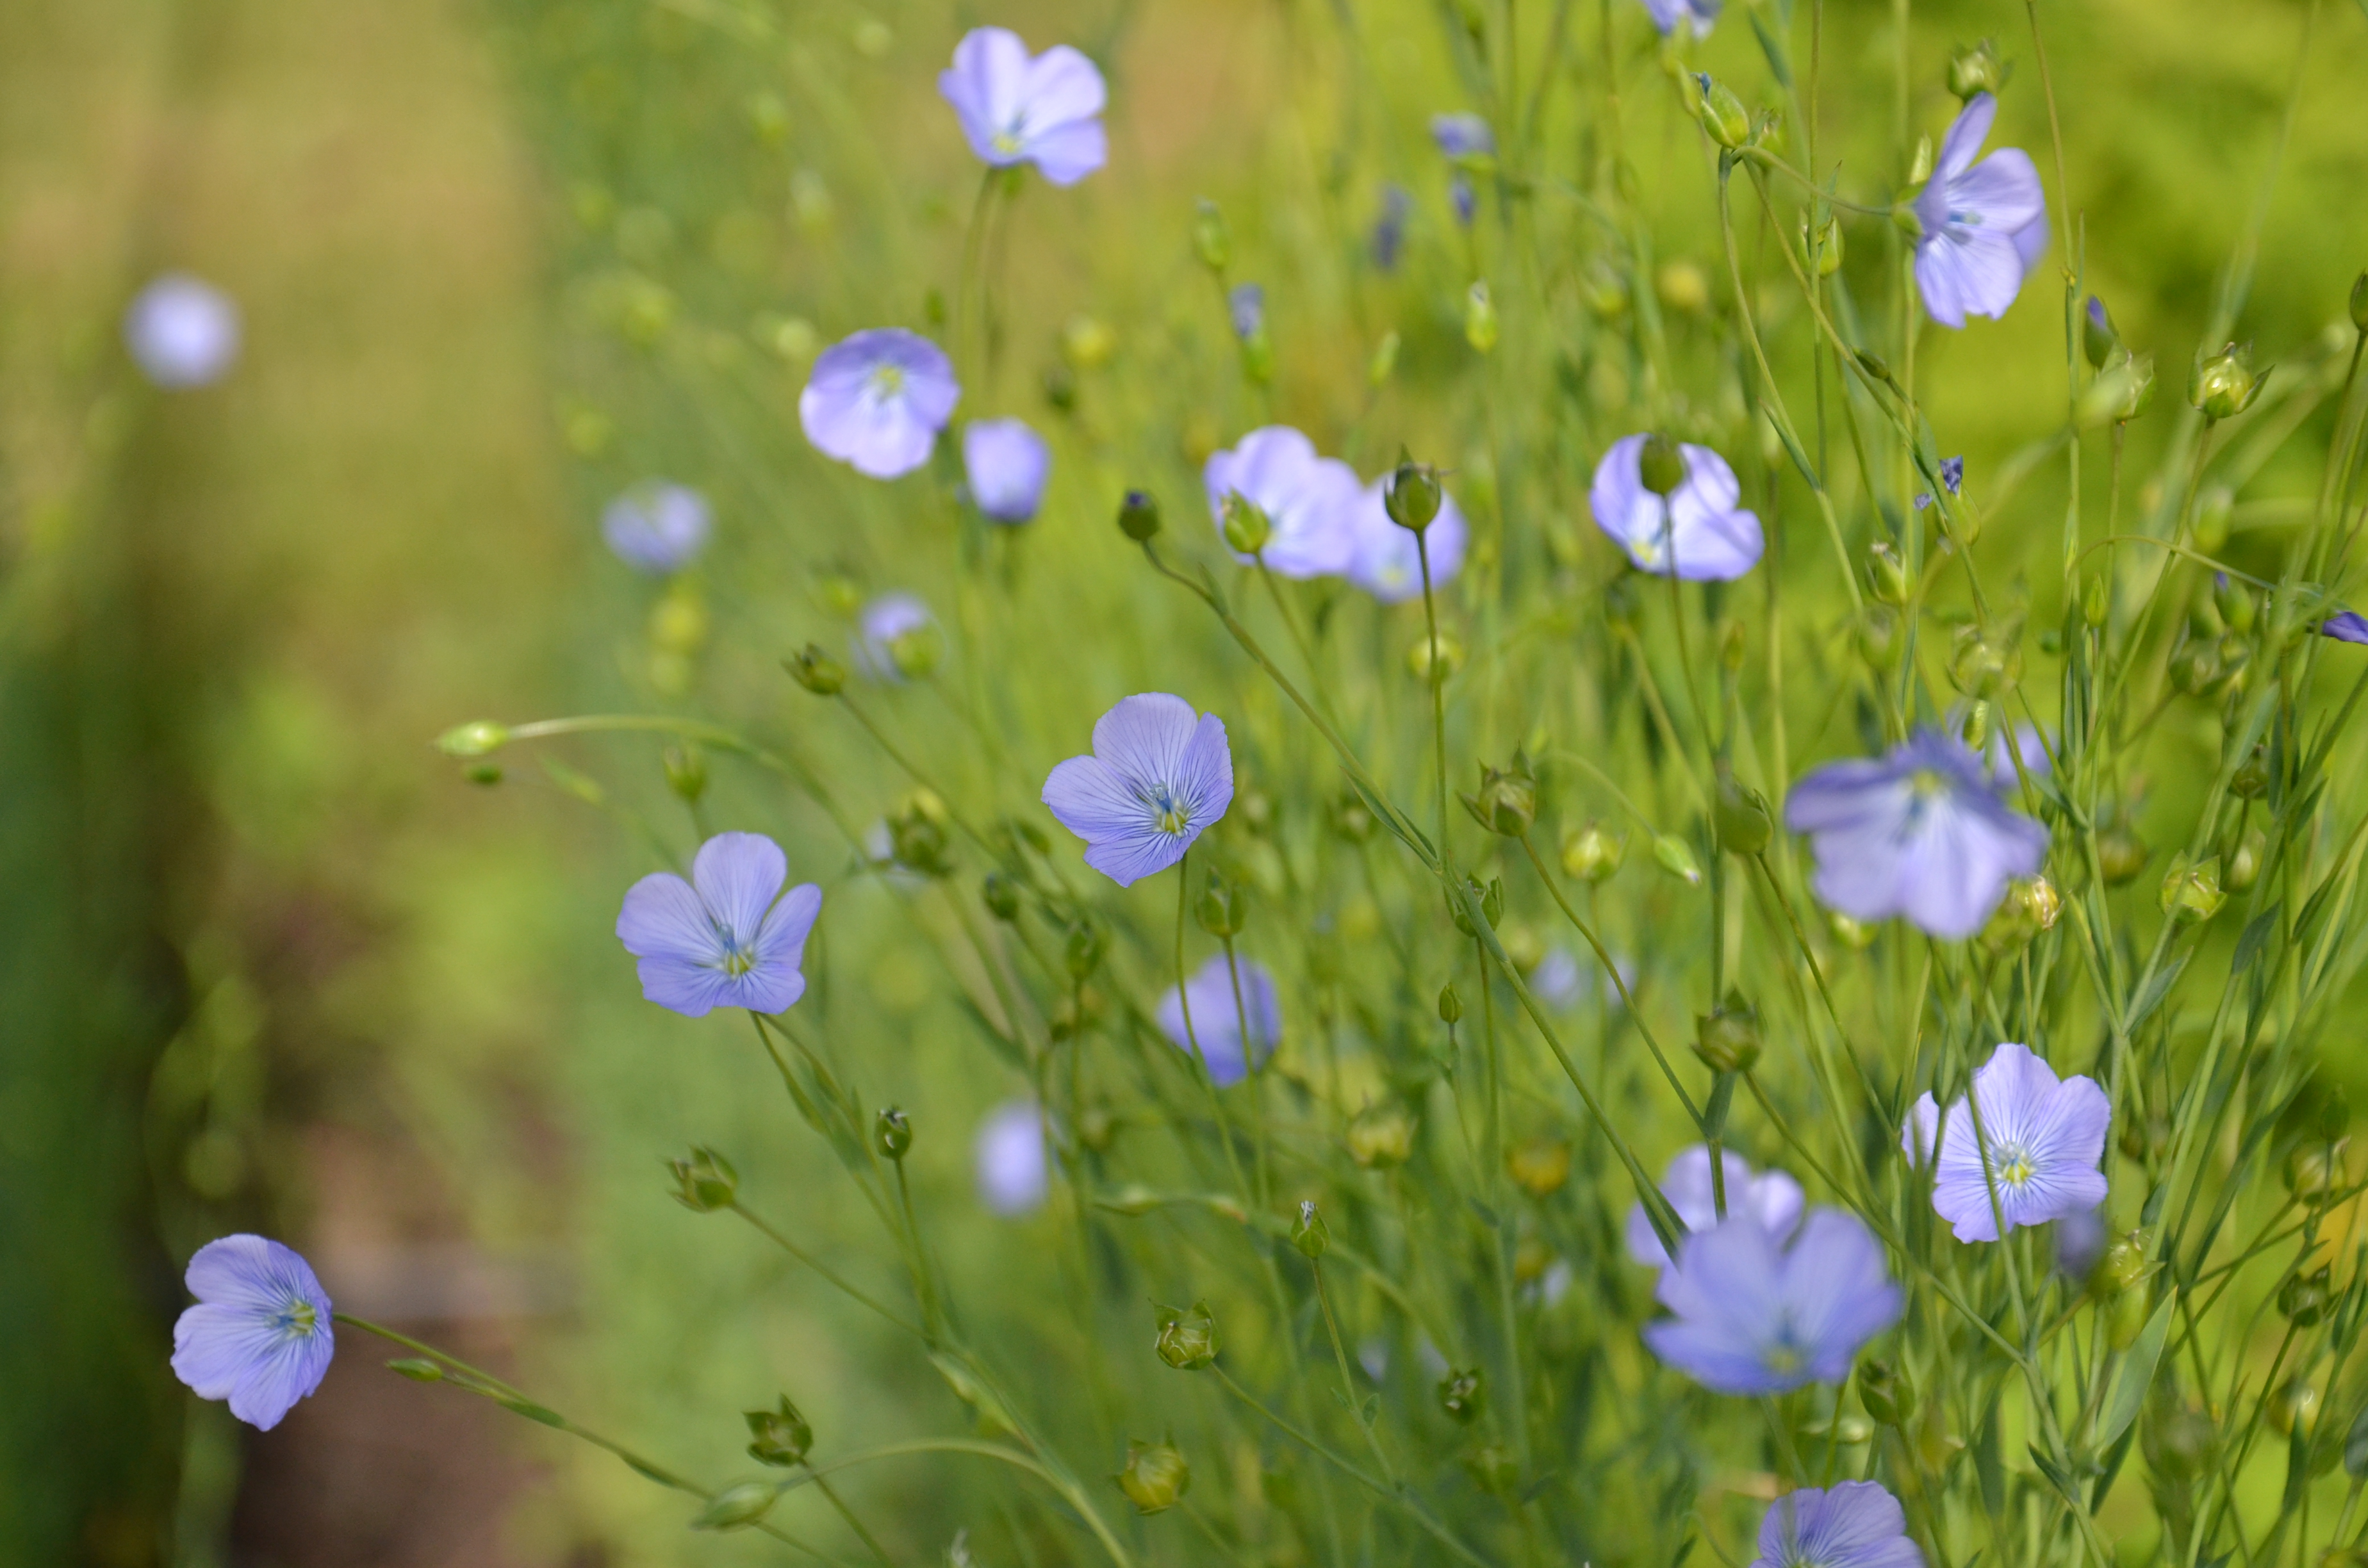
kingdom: Plantae
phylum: Tracheophyta
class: Magnoliopsida
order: Malpighiales
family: Linaceae
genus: Linum
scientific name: Linum usitatissimum
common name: Flax
